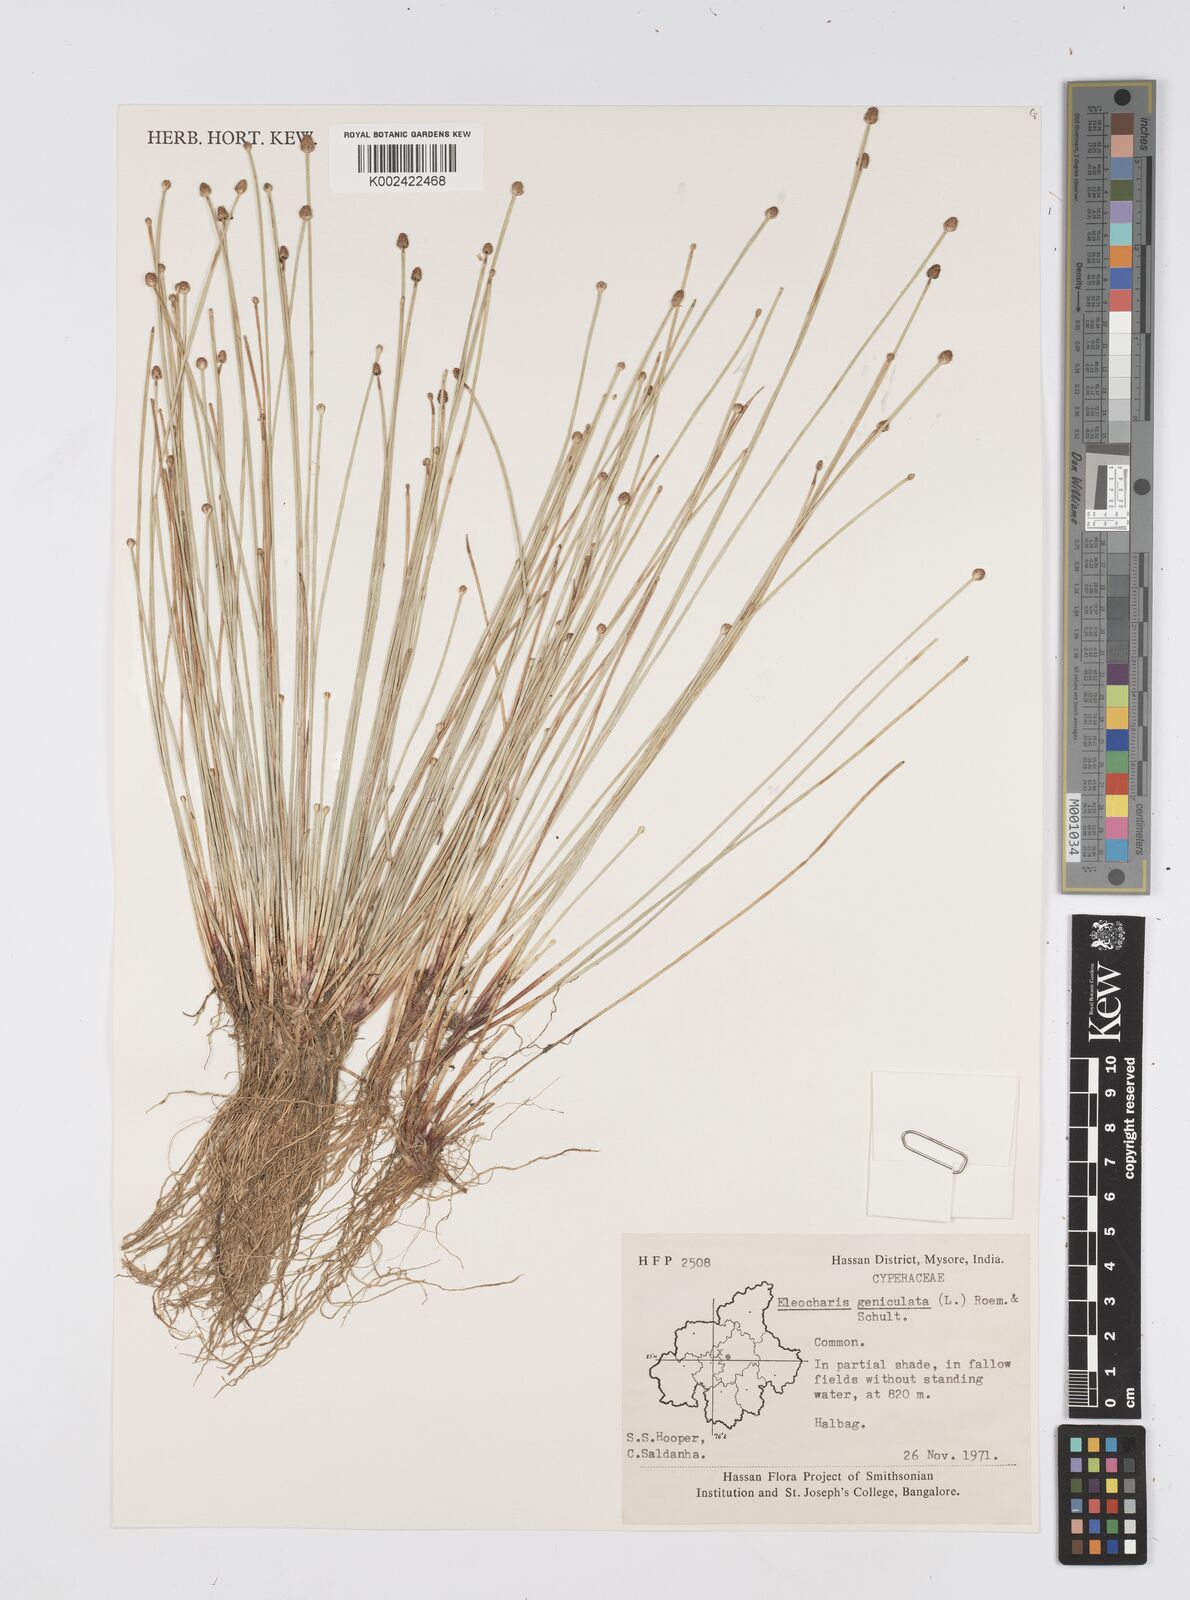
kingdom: Plantae
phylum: Tracheophyta
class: Liliopsida
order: Poales
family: Cyperaceae
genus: Eleocharis
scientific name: Eleocharis geniculata
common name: Canada spikesedge
